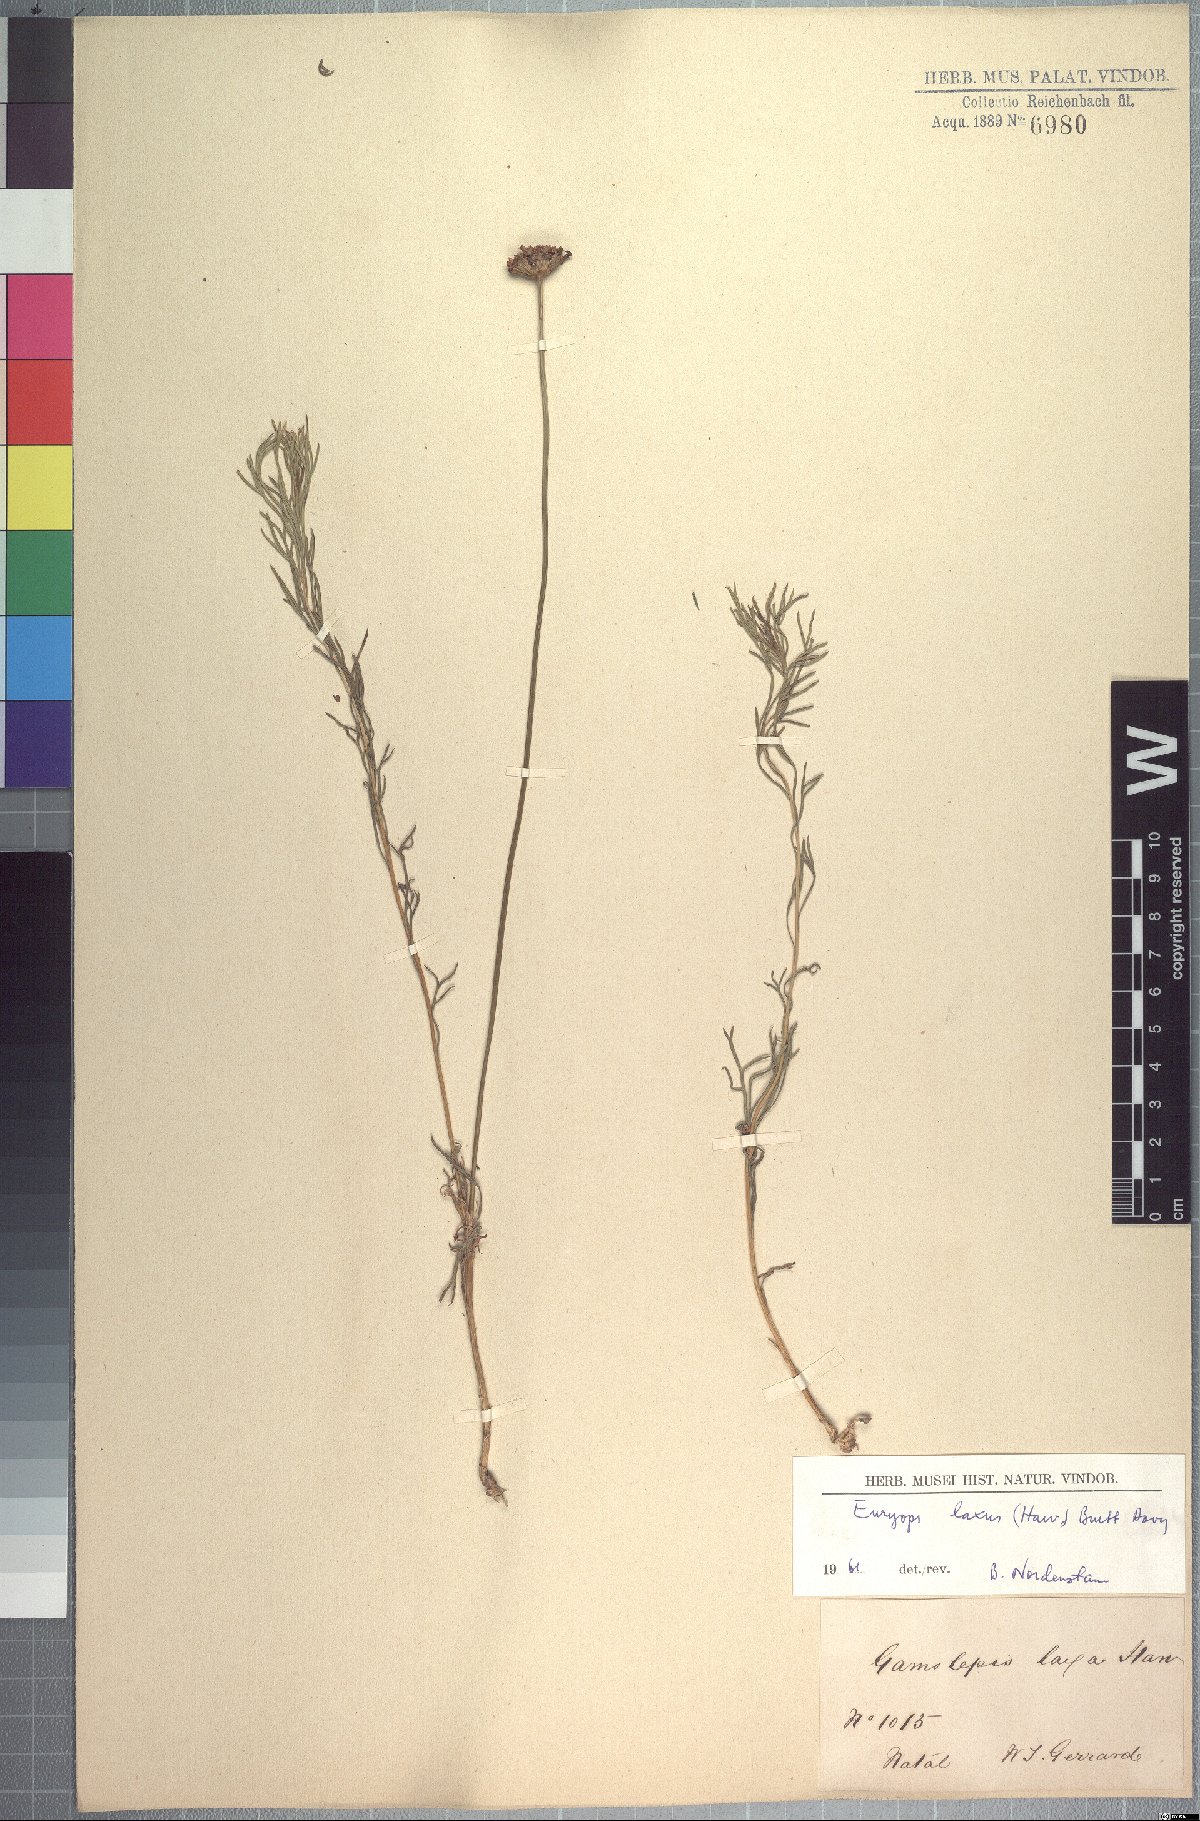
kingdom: Plantae
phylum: Tracheophyta
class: Magnoliopsida
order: Asterales
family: Asteraceae
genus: Euryops
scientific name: Euryops laxus
